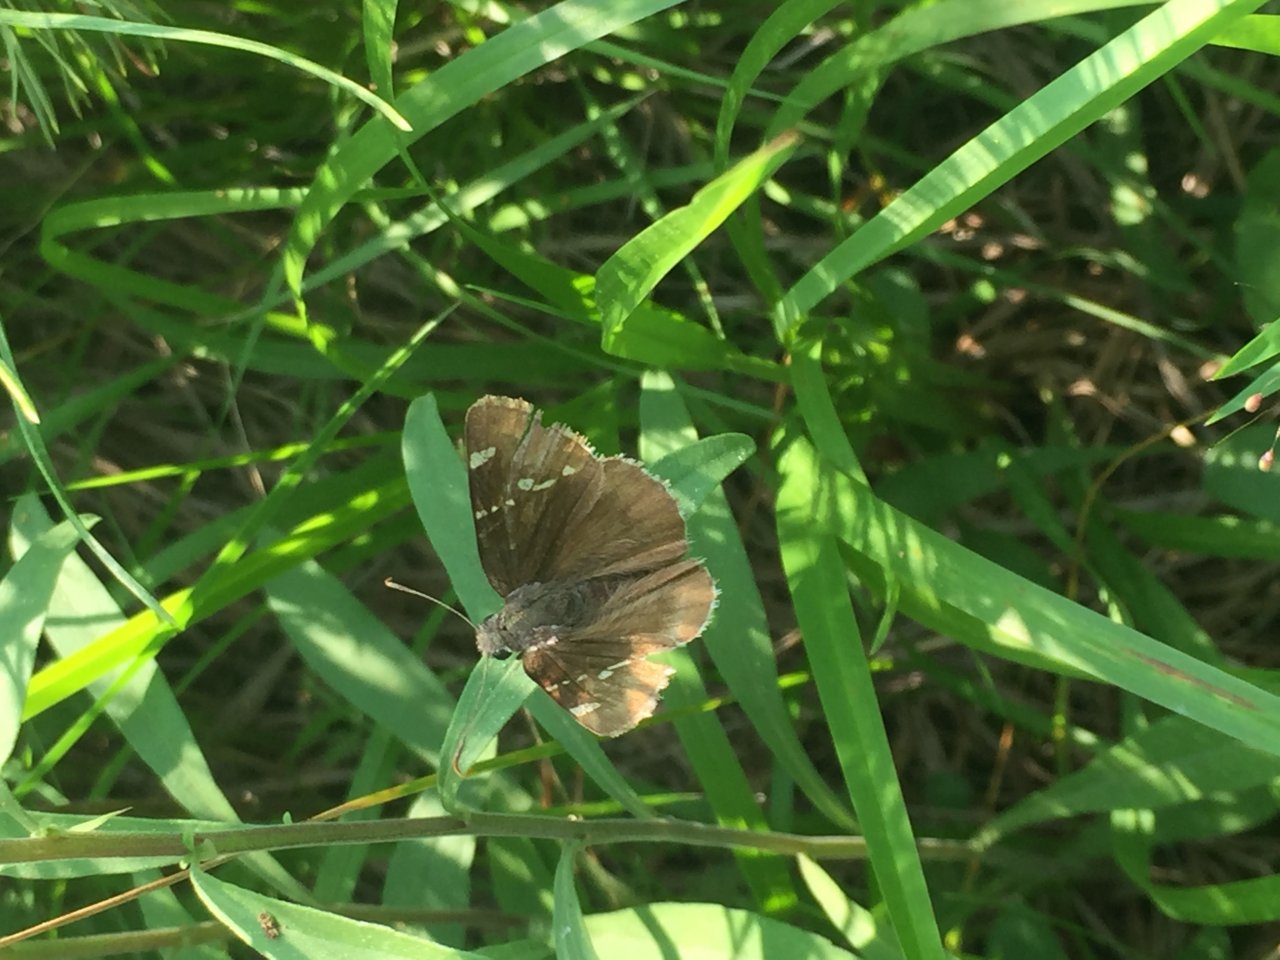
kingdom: Animalia
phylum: Arthropoda
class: Insecta
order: Lepidoptera
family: Hesperiidae
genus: Autochton
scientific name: Autochton
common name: Southern Cloudywing
